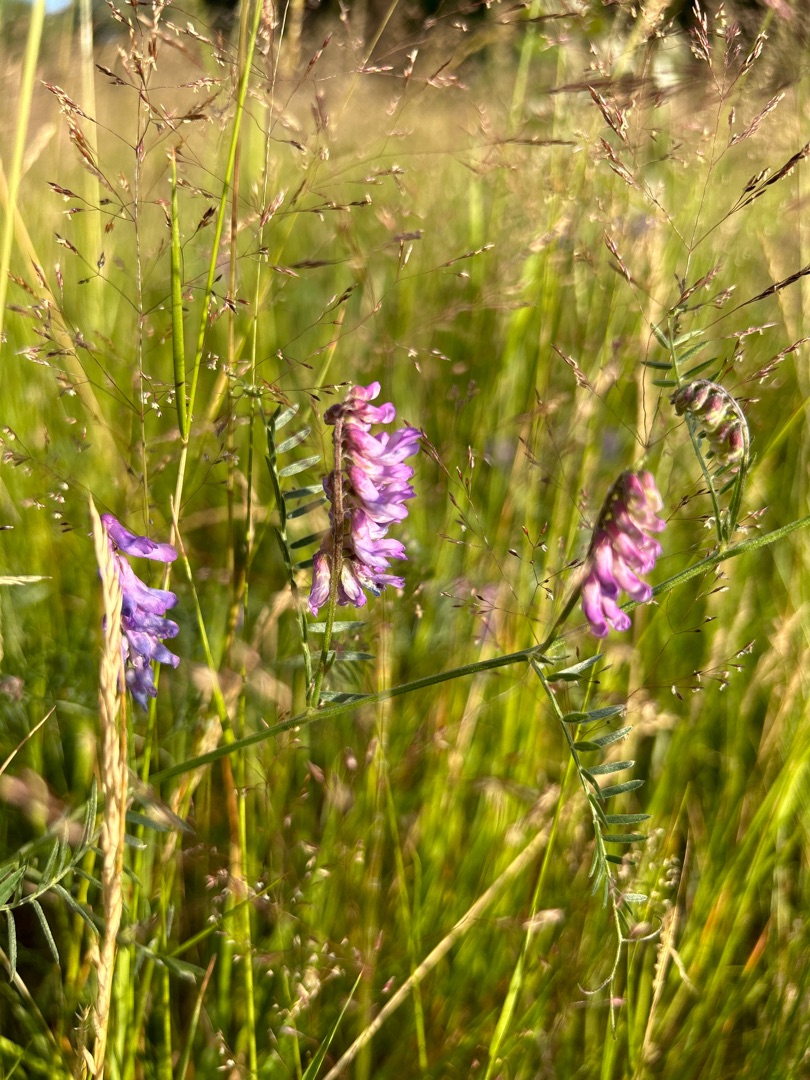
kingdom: Plantae
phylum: Tracheophyta
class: Magnoliopsida
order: Fabales
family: Fabaceae
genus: Vicia
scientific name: Vicia cracca
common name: Muse-vikke
